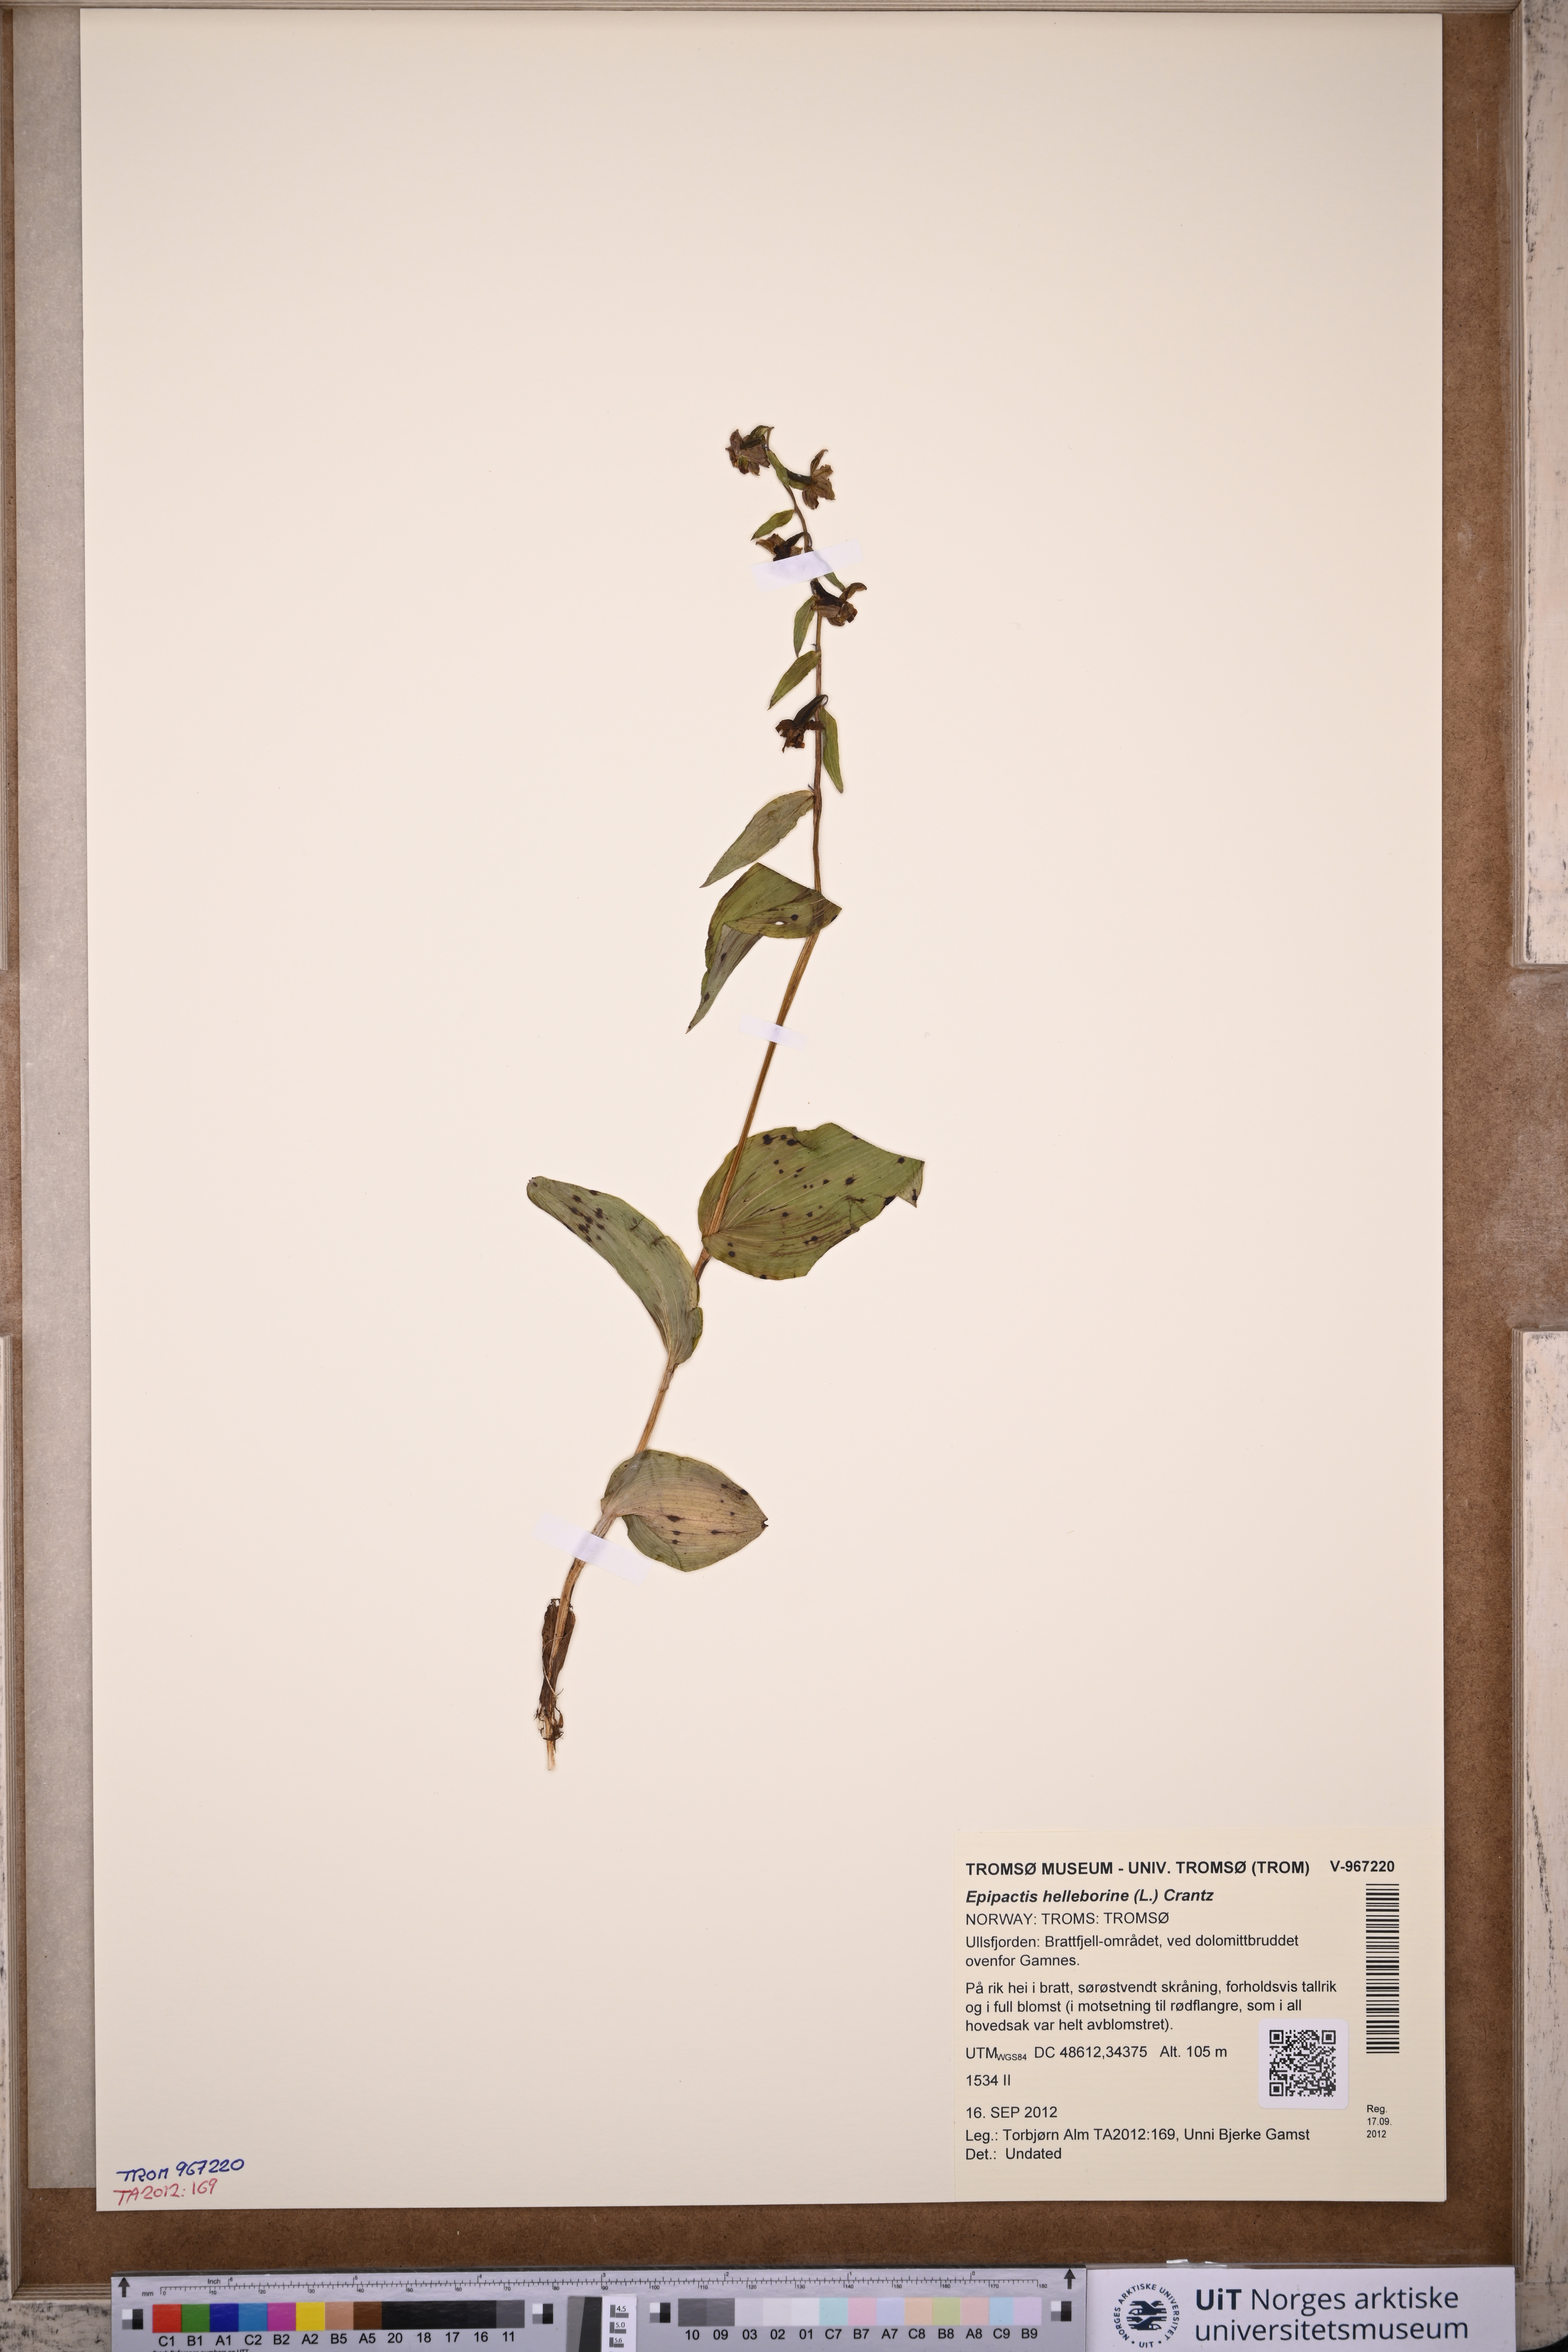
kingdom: Plantae
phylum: Tracheophyta
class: Liliopsida
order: Asparagales
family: Orchidaceae
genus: Epipactis
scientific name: Epipactis helleborine
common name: Broad-leaved helleborine
